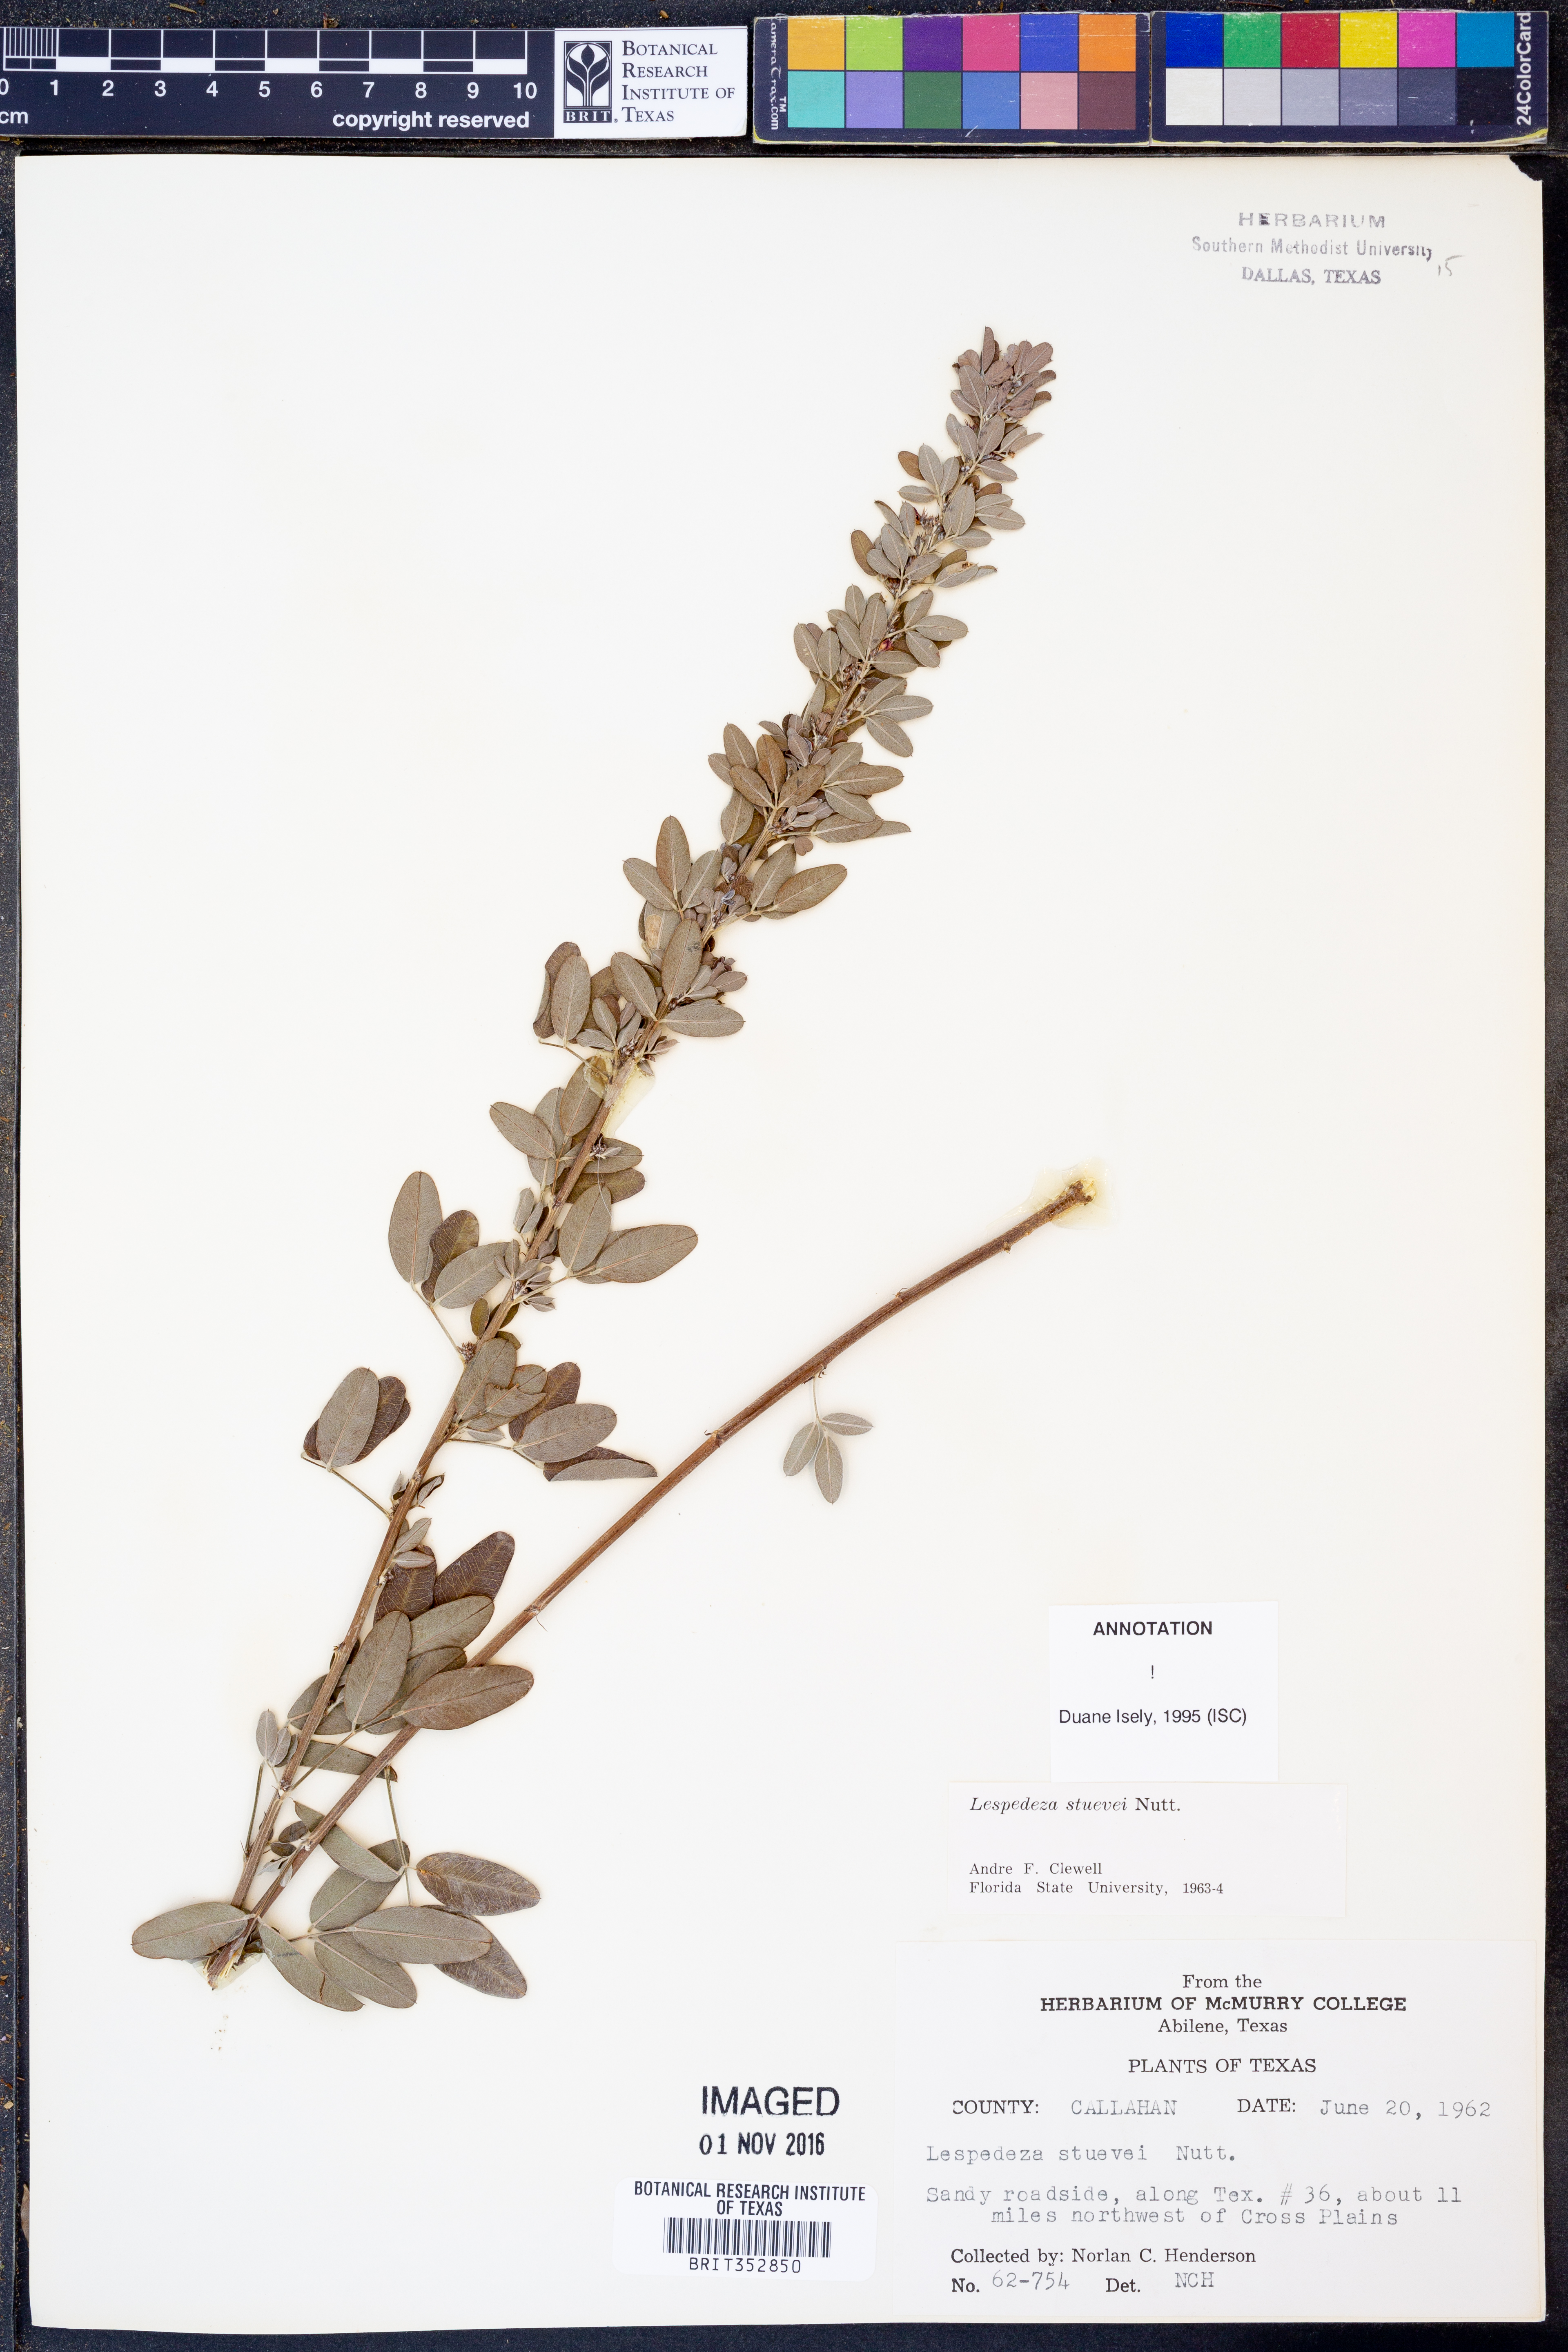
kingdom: Plantae
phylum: Tracheophyta
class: Magnoliopsida
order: Fabales
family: Fabaceae
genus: Lespedeza
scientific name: Lespedeza stuevei
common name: Tall bush-clover
